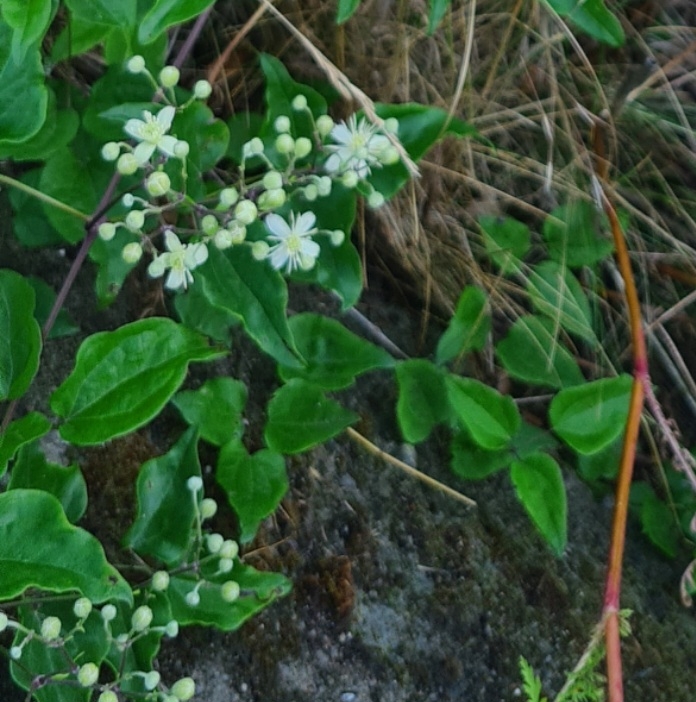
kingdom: Plantae
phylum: Tracheophyta
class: Magnoliopsida
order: Ranunculales
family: Ranunculaceae
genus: Clematis
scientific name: Clematis vitalba
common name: Skovranke
